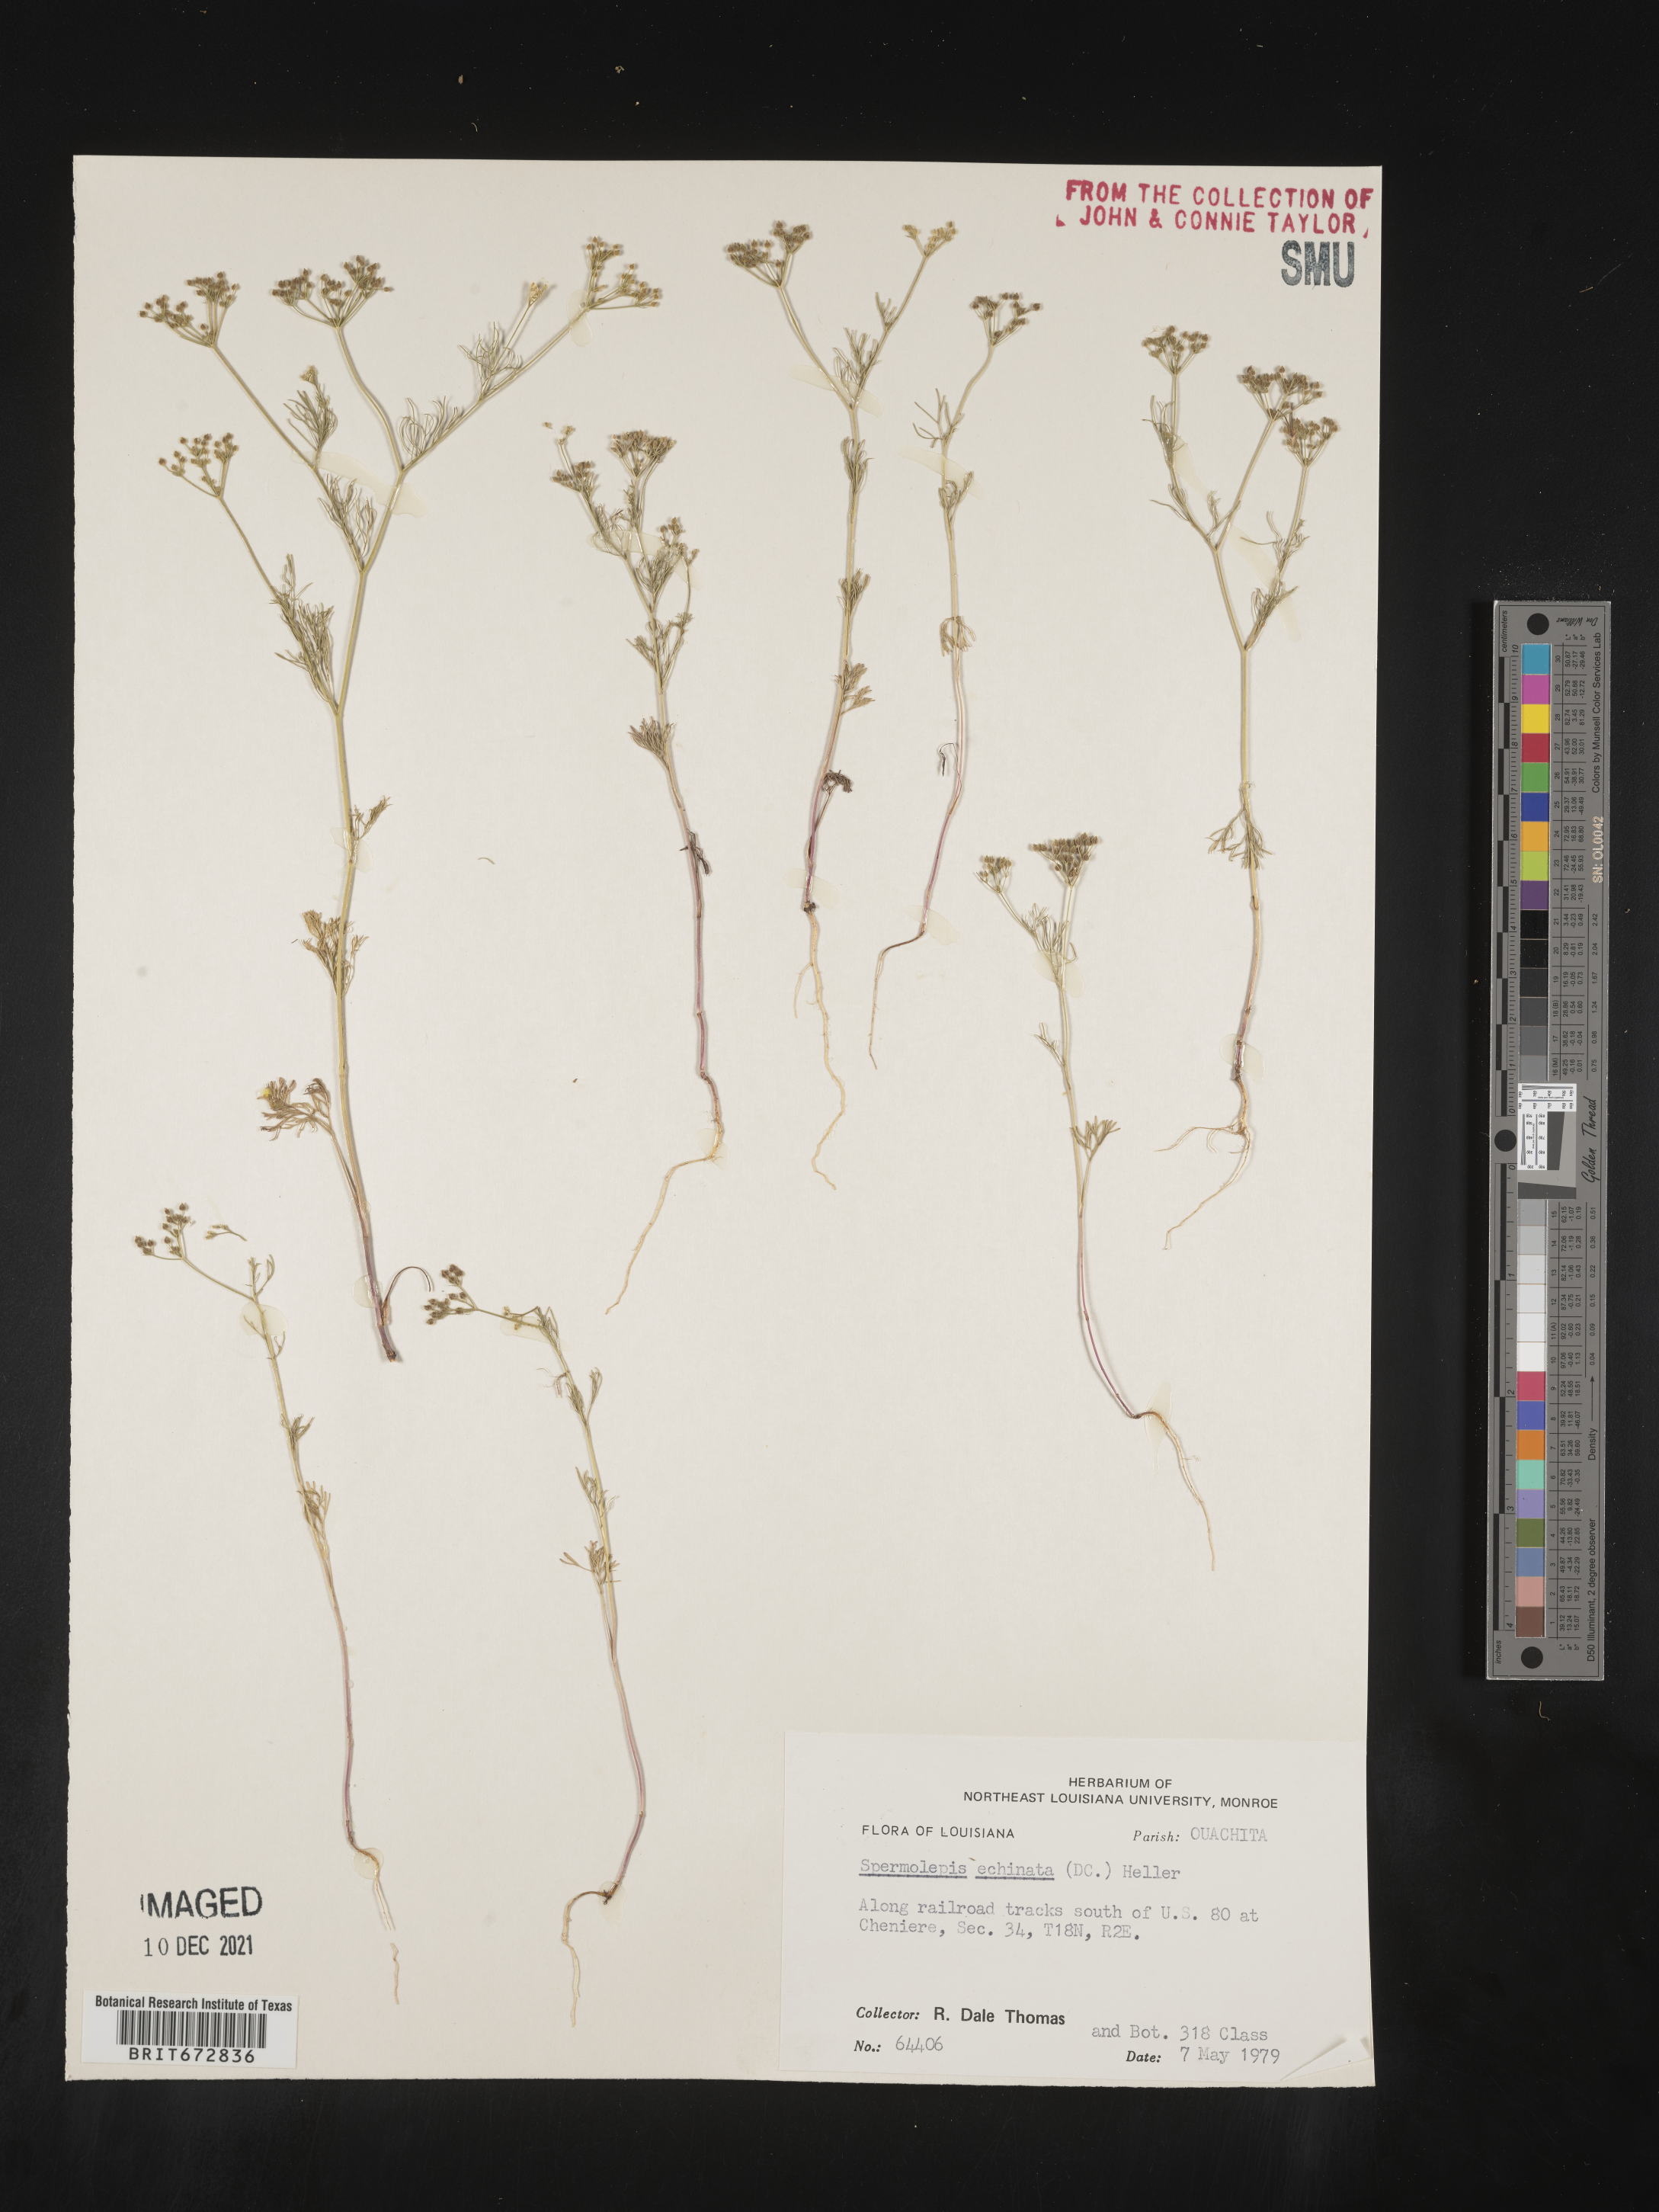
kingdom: Plantae
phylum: Tracheophyta
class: Magnoliopsida
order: Apiales
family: Apiaceae
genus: Spermolepis
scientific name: Spermolepis echinata
